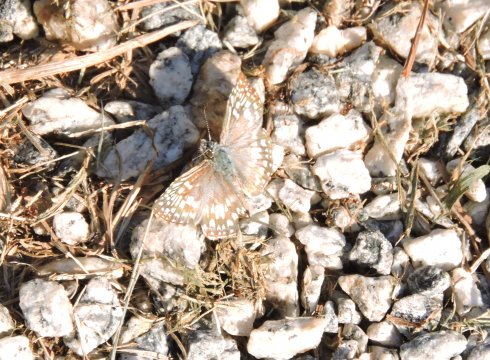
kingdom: Animalia
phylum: Arthropoda
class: Insecta
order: Lepidoptera
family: Hesperiidae
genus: Pyrgus
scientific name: Pyrgus oileus
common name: Tropical Checkered-Skipper
